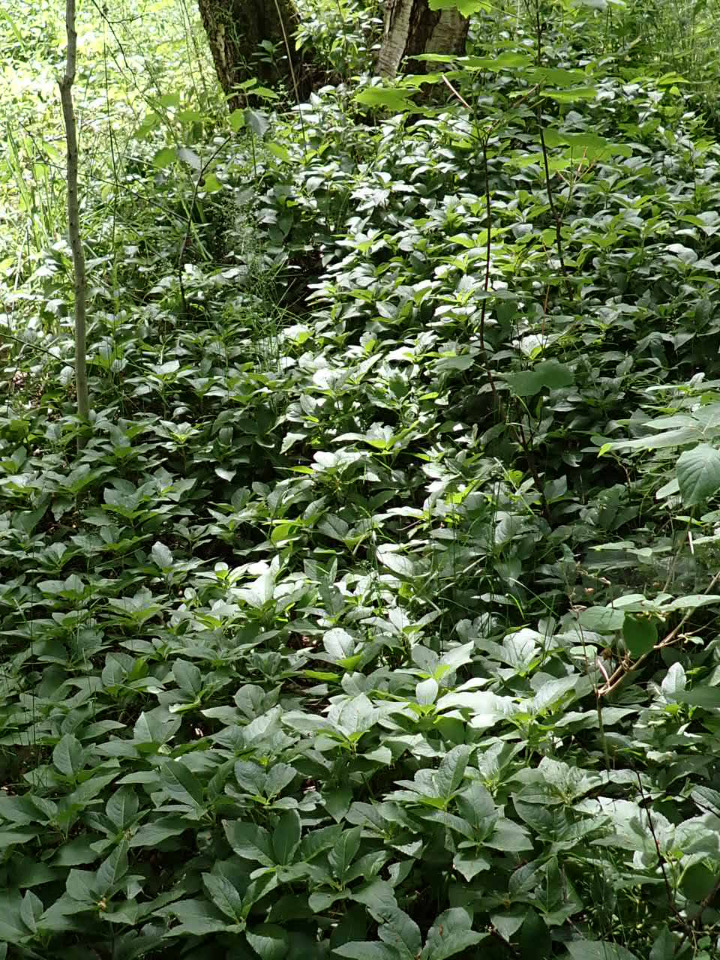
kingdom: Plantae
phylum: Tracheophyta
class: Magnoliopsida
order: Malpighiales
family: Euphorbiaceae
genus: Mercurialis
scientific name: Mercurialis perennis
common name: Almindelig bingelurt
